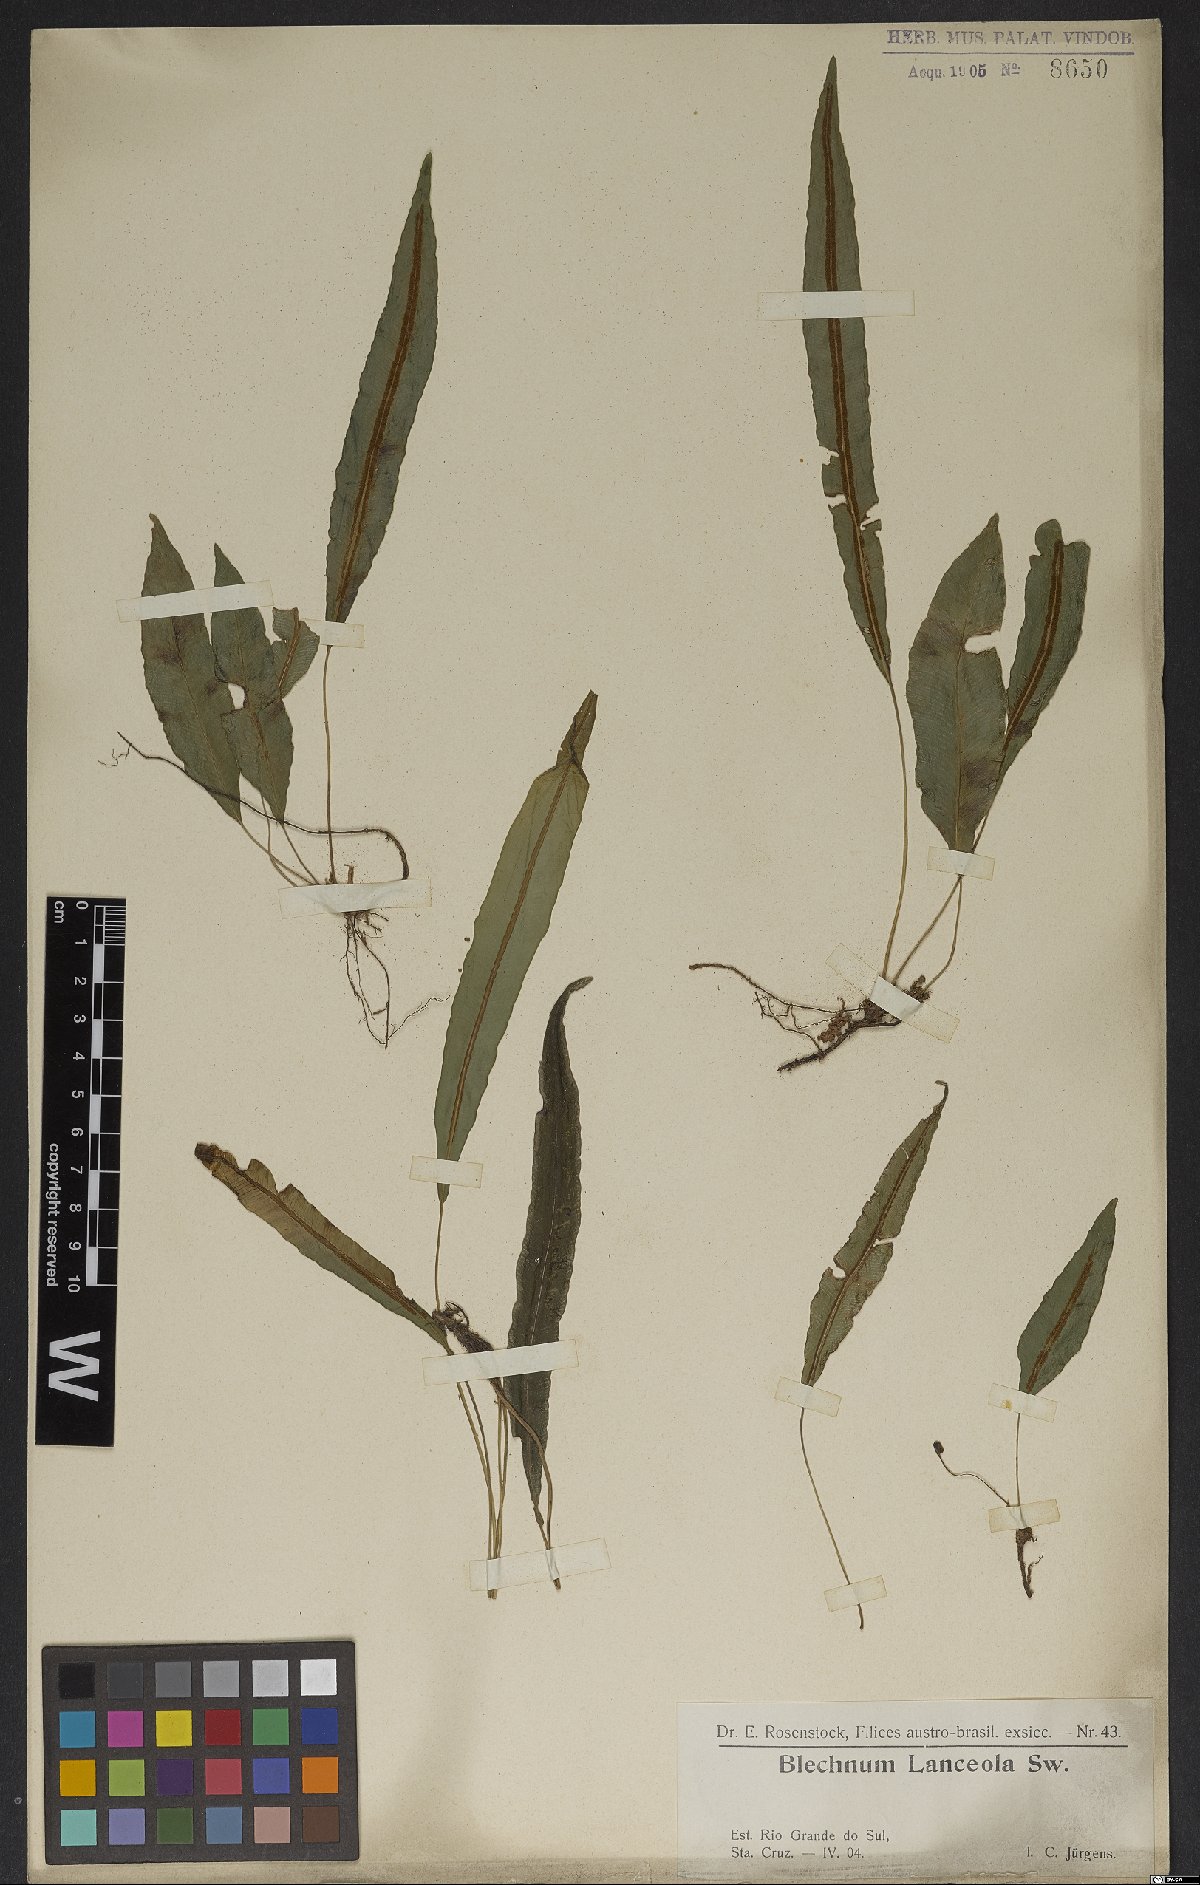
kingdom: Plantae
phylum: Tracheophyta
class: Polypodiopsida
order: Polypodiales
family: Blechnaceae
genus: Blechnum
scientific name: Blechnum lanceola
